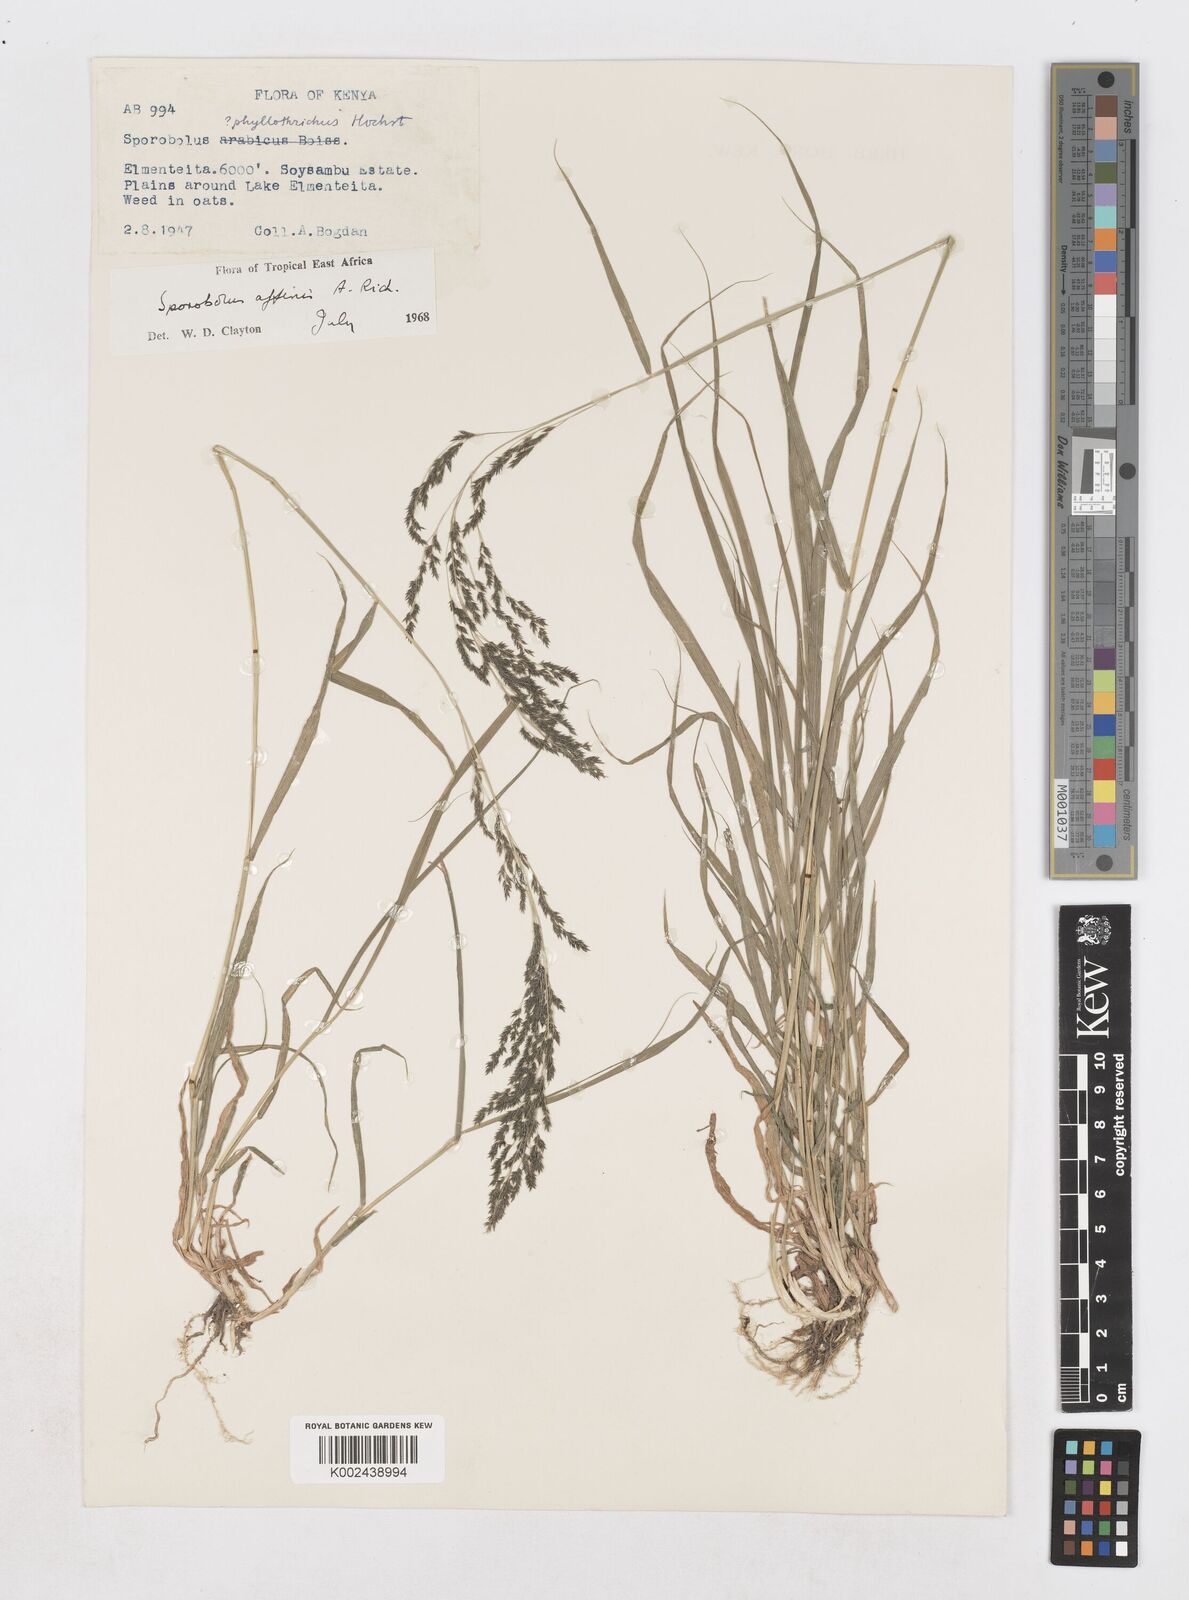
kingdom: Plantae
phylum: Tracheophyta
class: Liliopsida
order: Poales
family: Poaceae
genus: Sporobolus
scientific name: Sporobolus confinis
